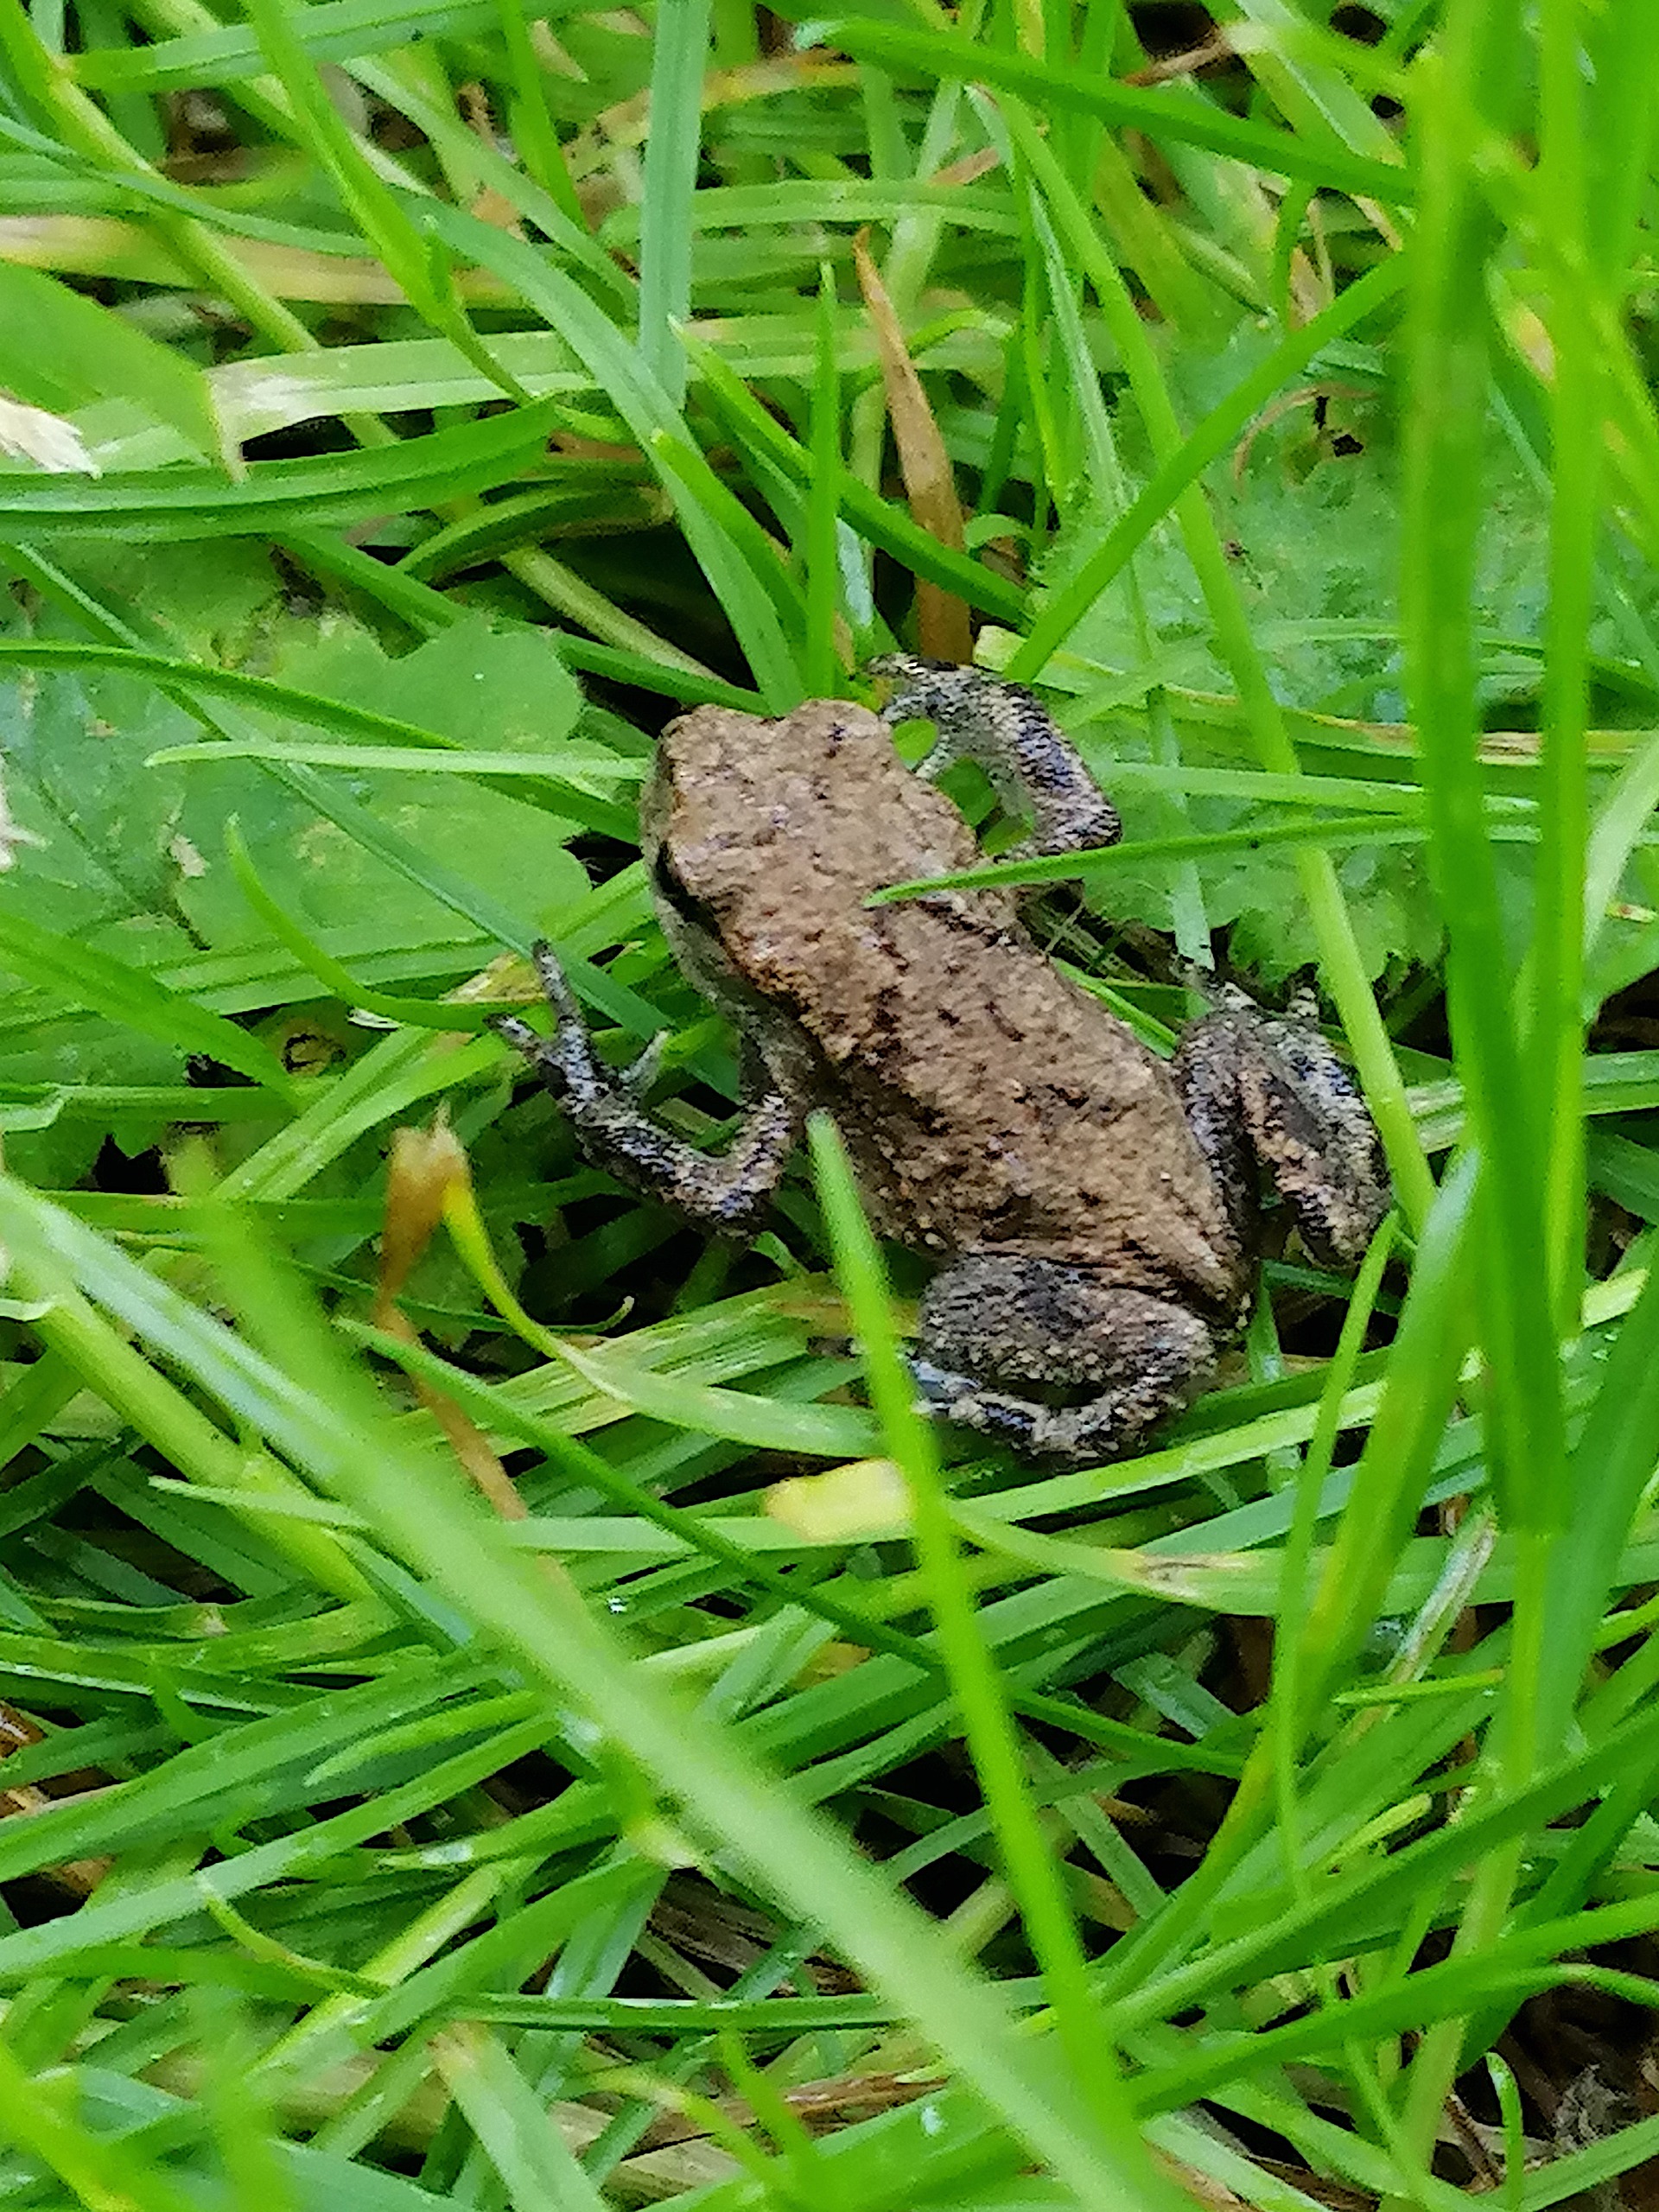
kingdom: Animalia
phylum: Chordata
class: Amphibia
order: Anura
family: Bufonidae
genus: Bufo
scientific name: Bufo bufo
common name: Skrubtudse
